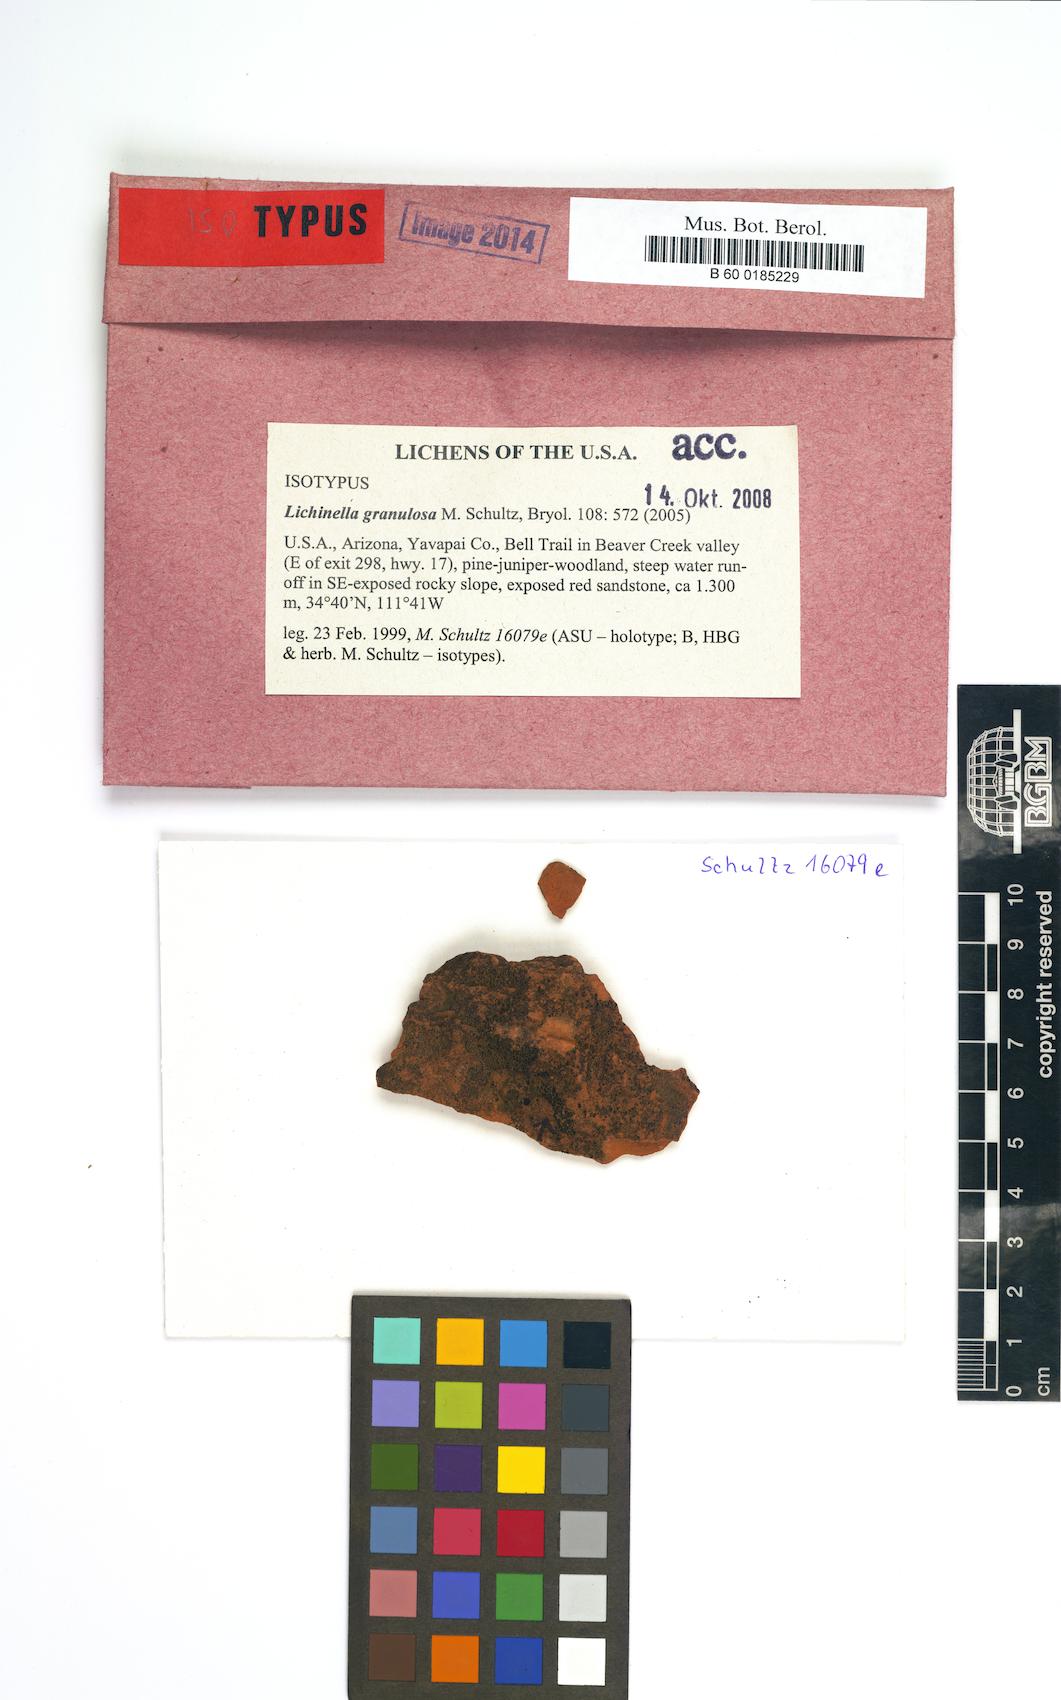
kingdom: Fungi
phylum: Ascomycota
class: Lichinomycetes
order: Lichinales
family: Lichinaceae
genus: Lichinella
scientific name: Lichinella granulosa
